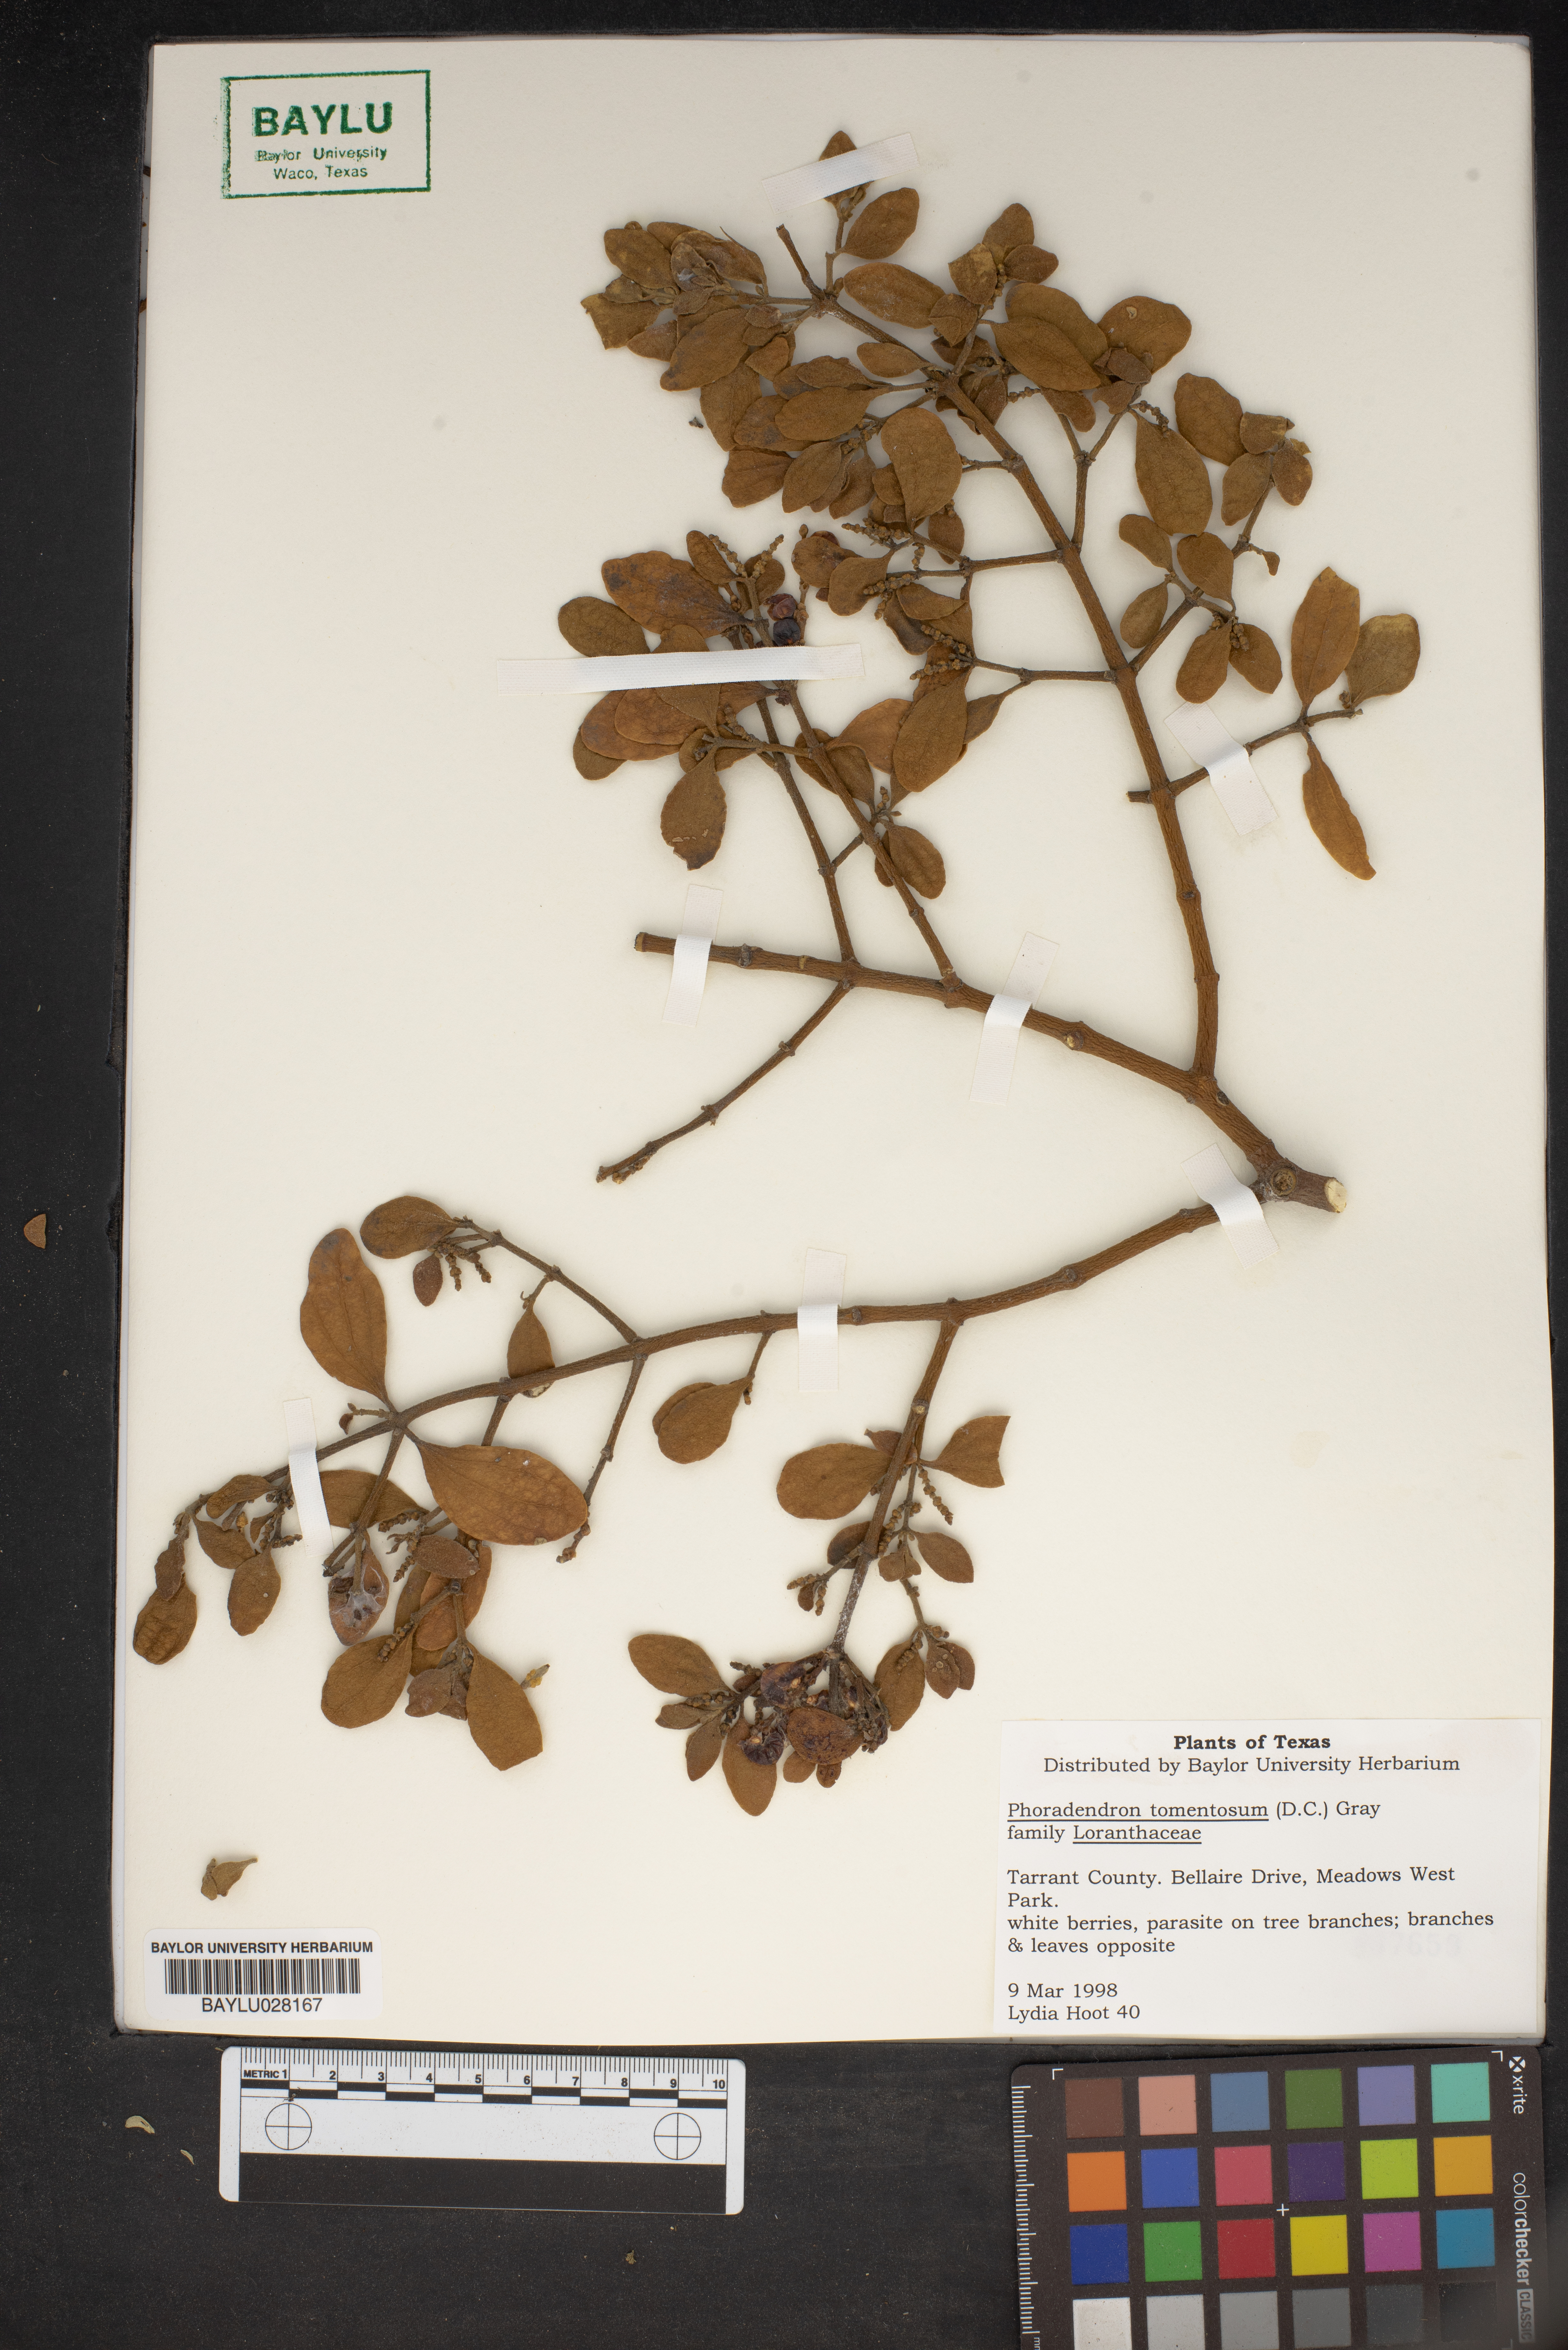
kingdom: Plantae
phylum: Tracheophyta
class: Magnoliopsida
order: Santalales
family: Viscaceae
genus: Phoradendron
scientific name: Phoradendron leucarpum
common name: Pacific mistletoe
